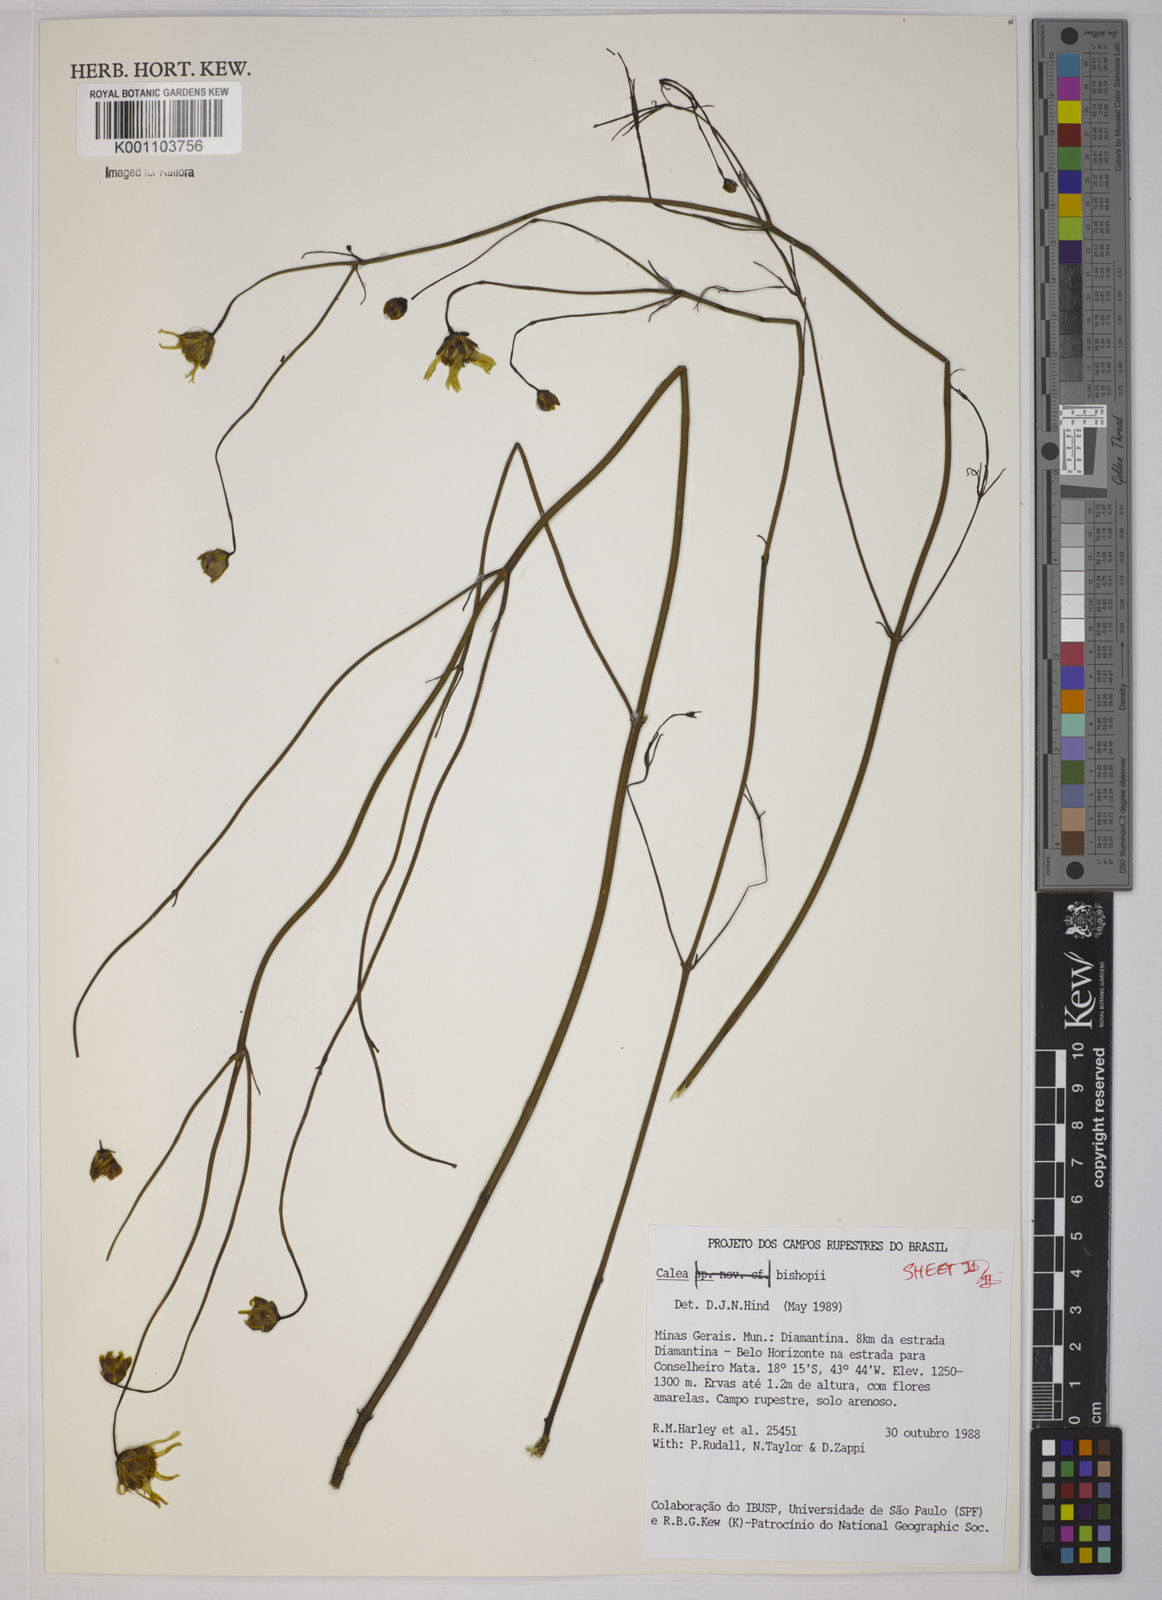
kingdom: Plantae
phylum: Tracheophyta
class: Magnoliopsida
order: Asterales
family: Asteraceae
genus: Calea
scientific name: Calea bishopii
